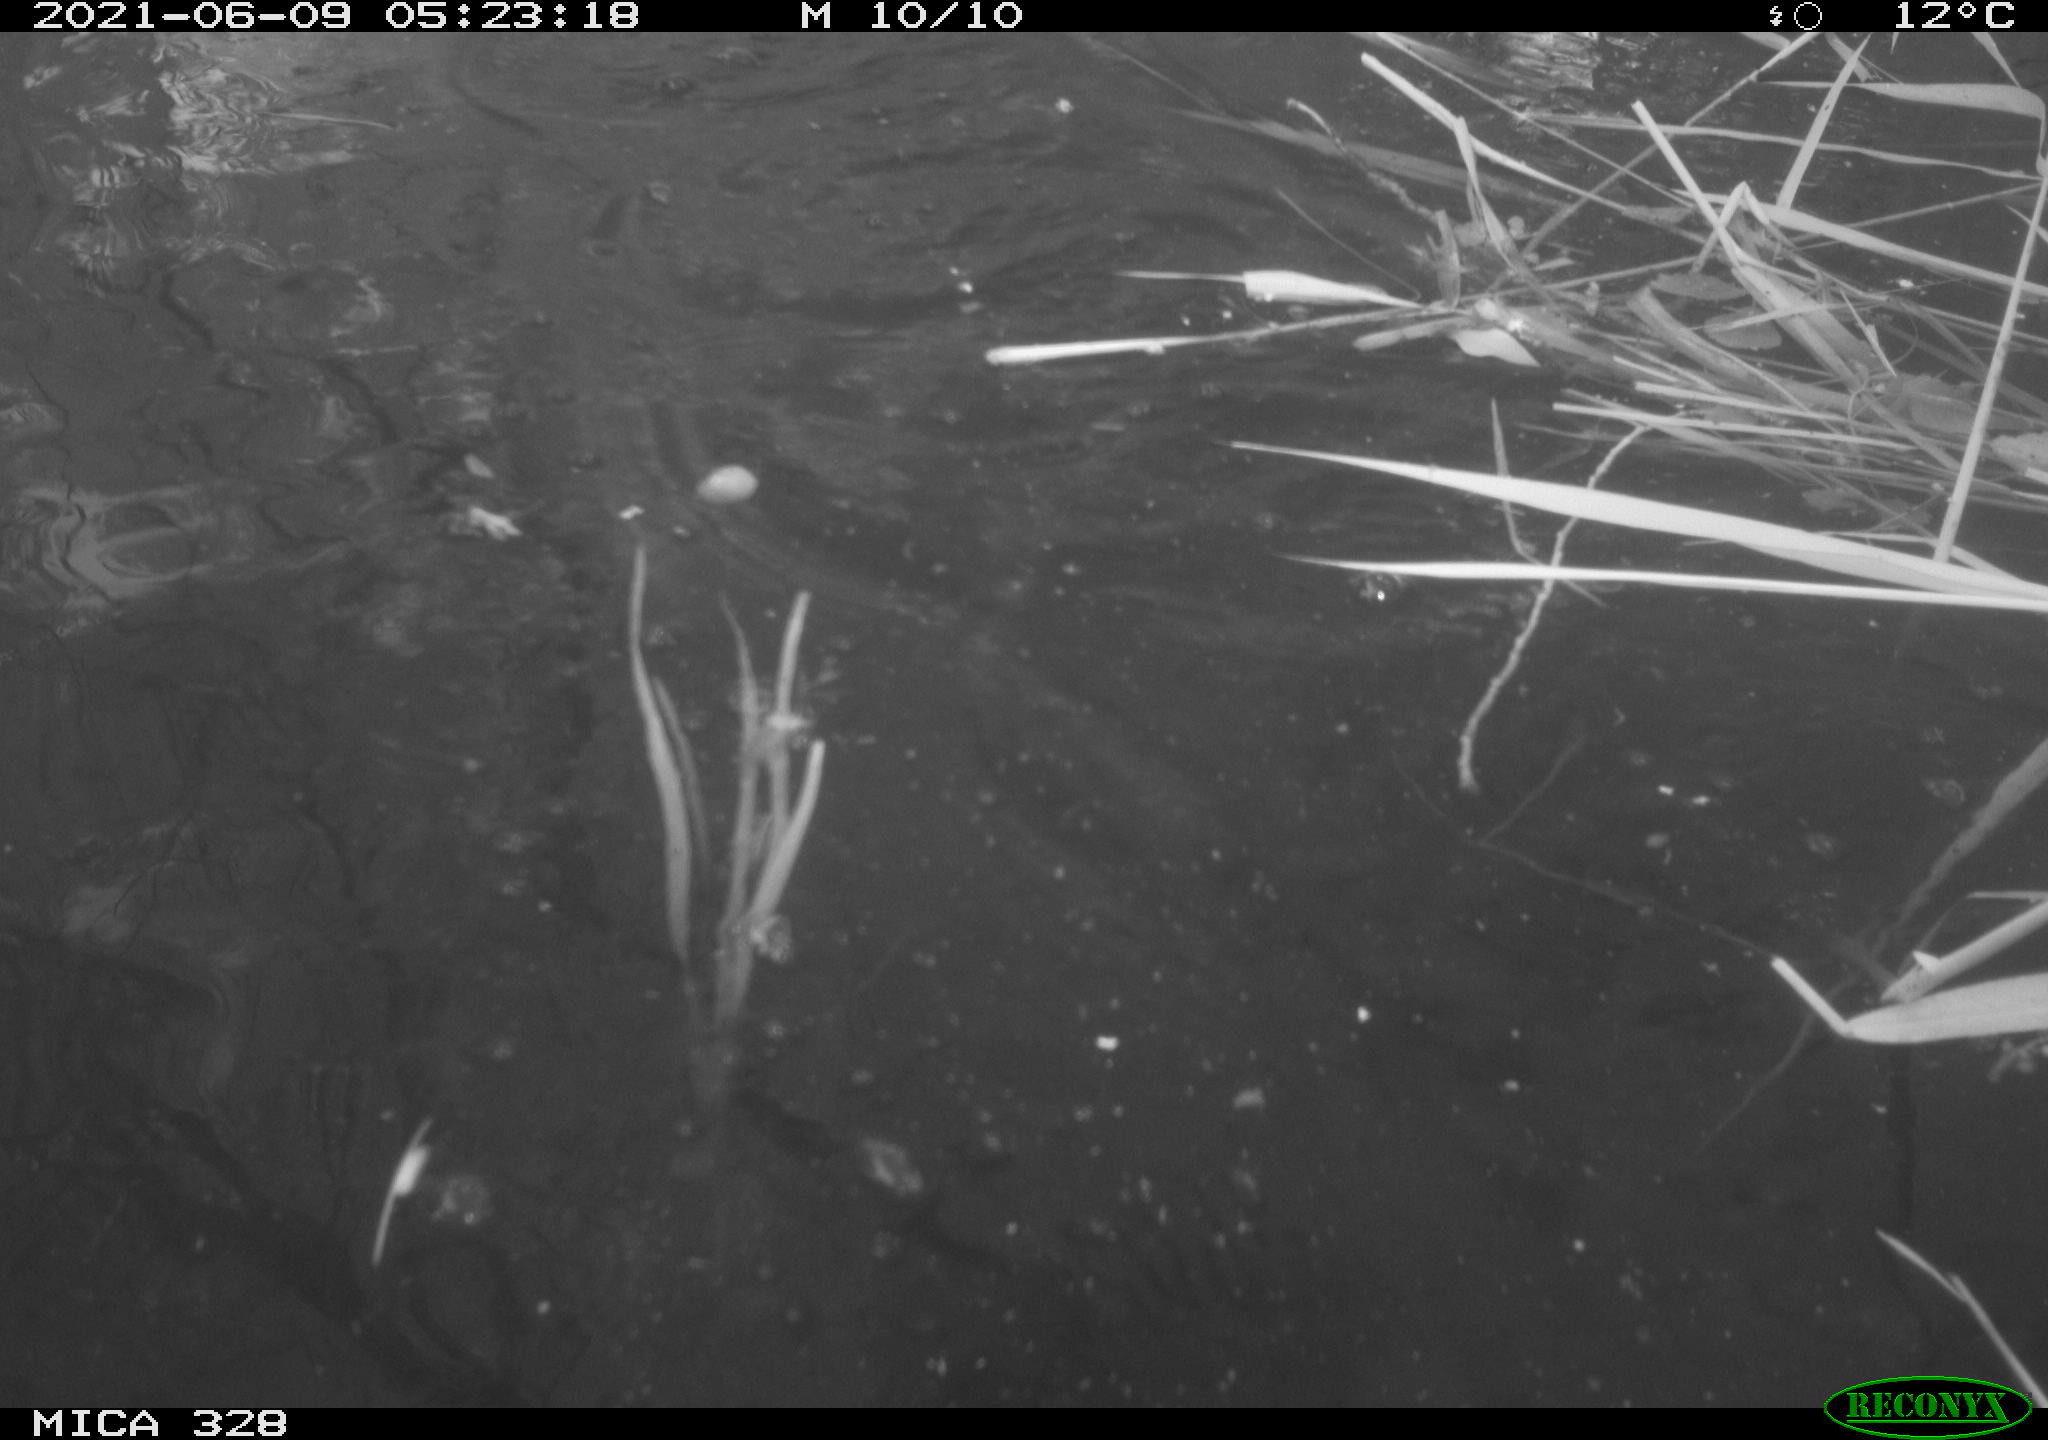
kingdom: Animalia
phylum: Chordata
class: Aves
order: Anseriformes
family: Anatidae
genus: Aix
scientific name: Aix galericulata
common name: Mandarin duck
